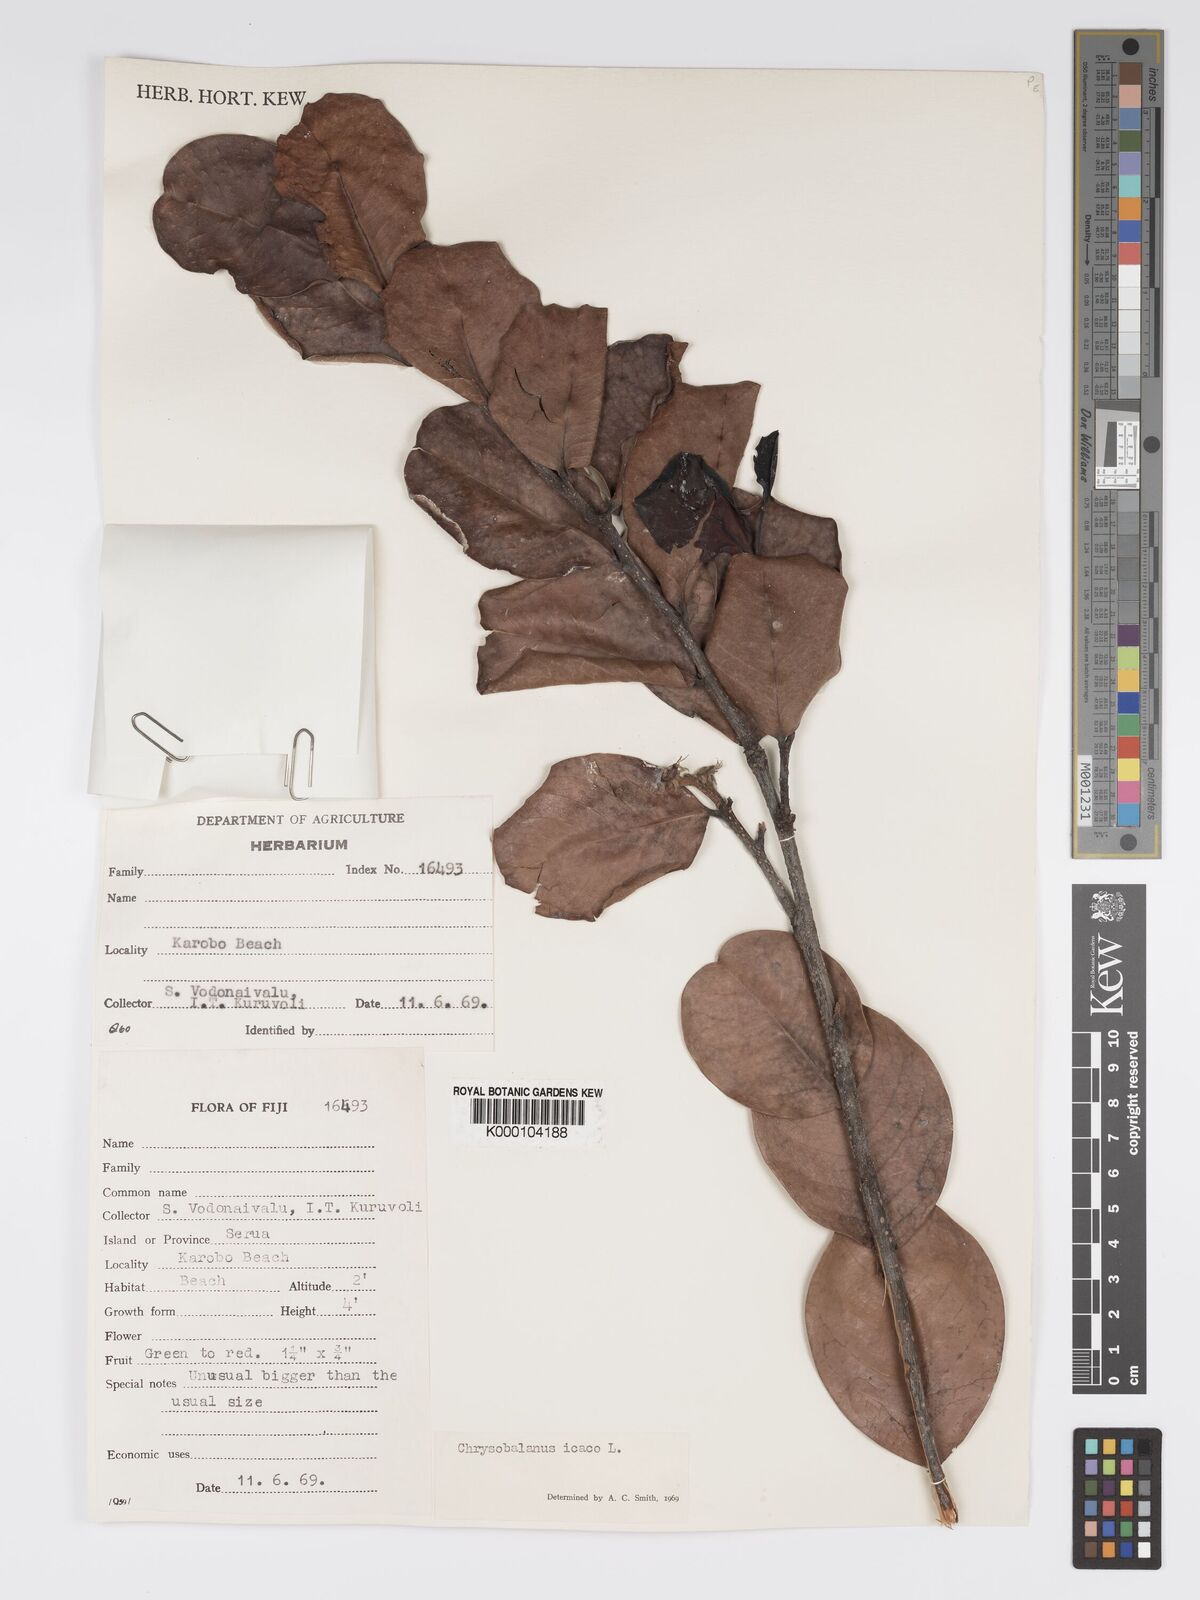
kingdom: Plantae
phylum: Tracheophyta
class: Magnoliopsida
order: Malpighiales
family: Chrysobalanaceae
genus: Chrysobalanus
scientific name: Chrysobalanus icaco
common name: Coco plum
